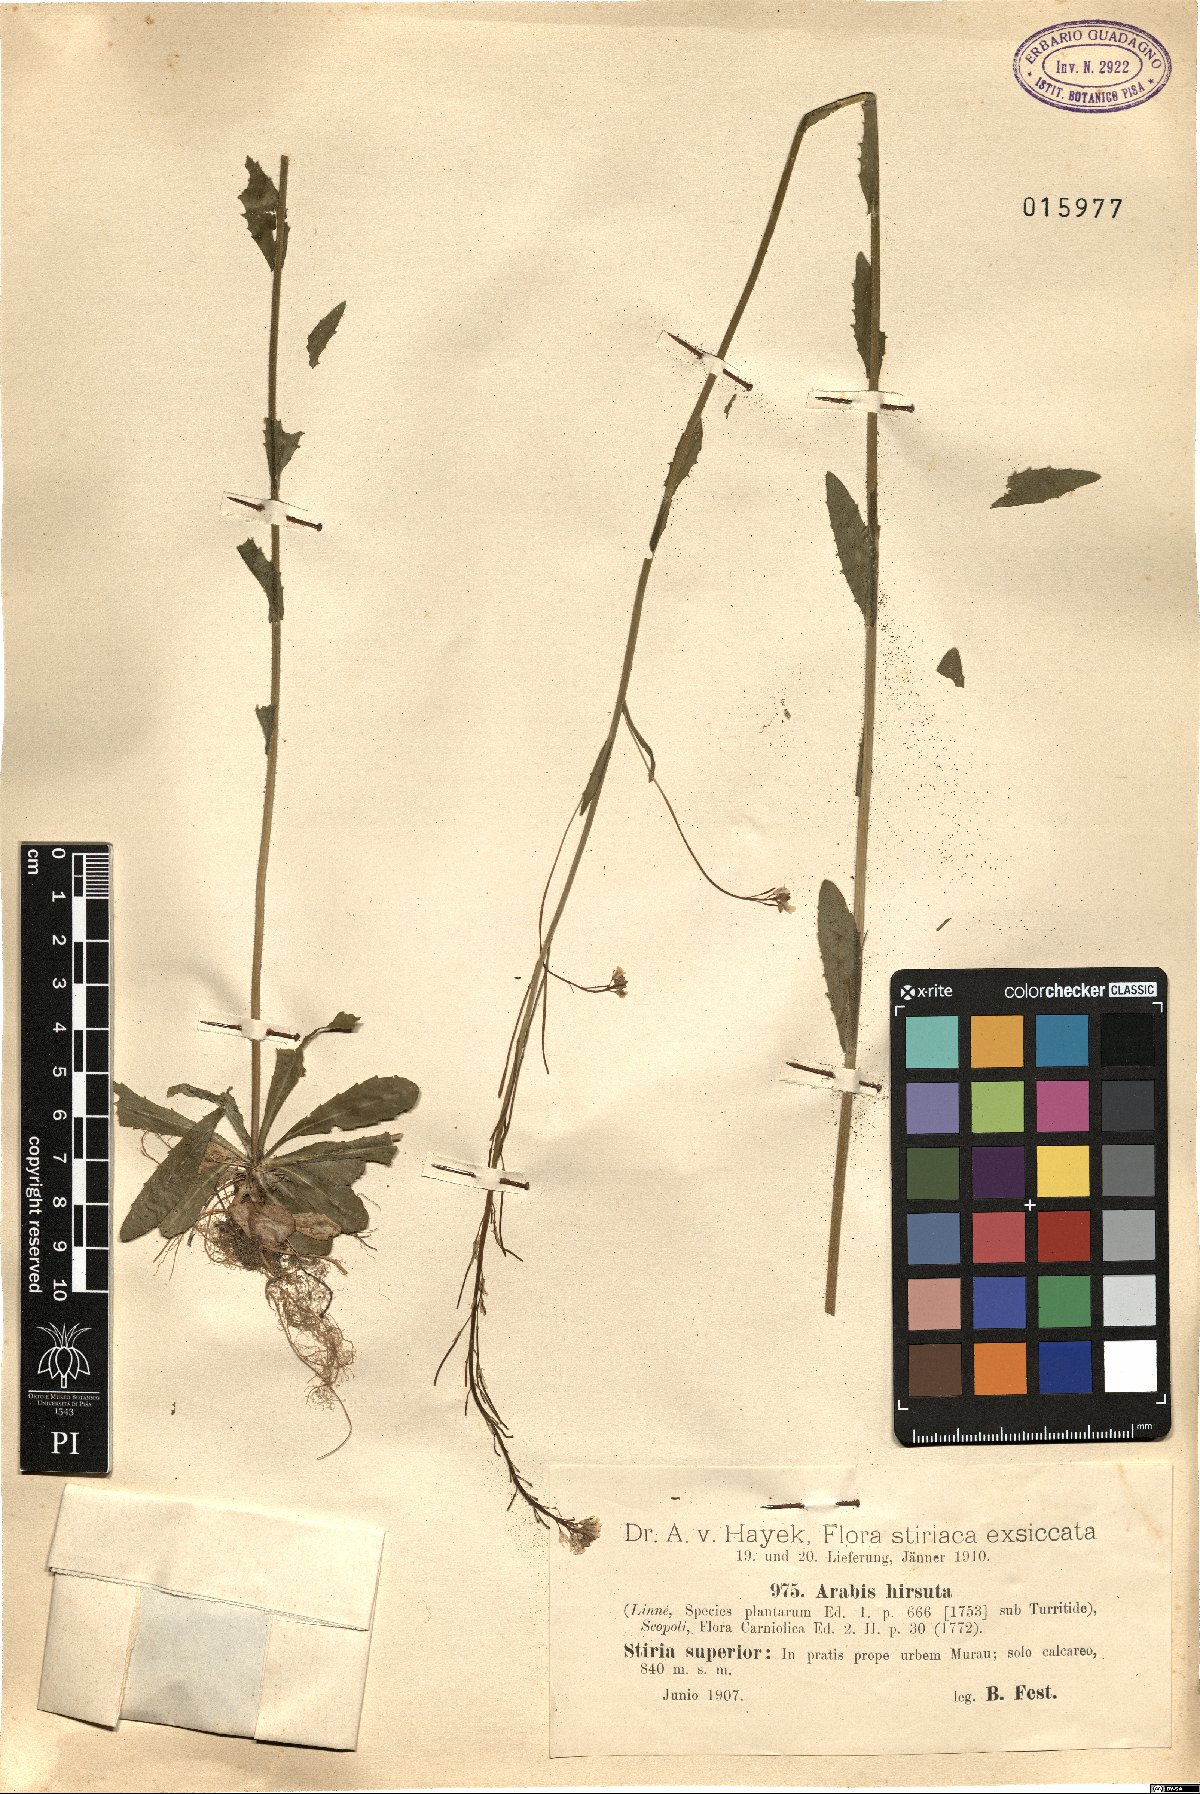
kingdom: Plantae
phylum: Tracheophyta
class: Magnoliopsida
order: Brassicales
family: Brassicaceae
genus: Arabis
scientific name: Arabis hirsuta
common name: Hairy rock-cress
